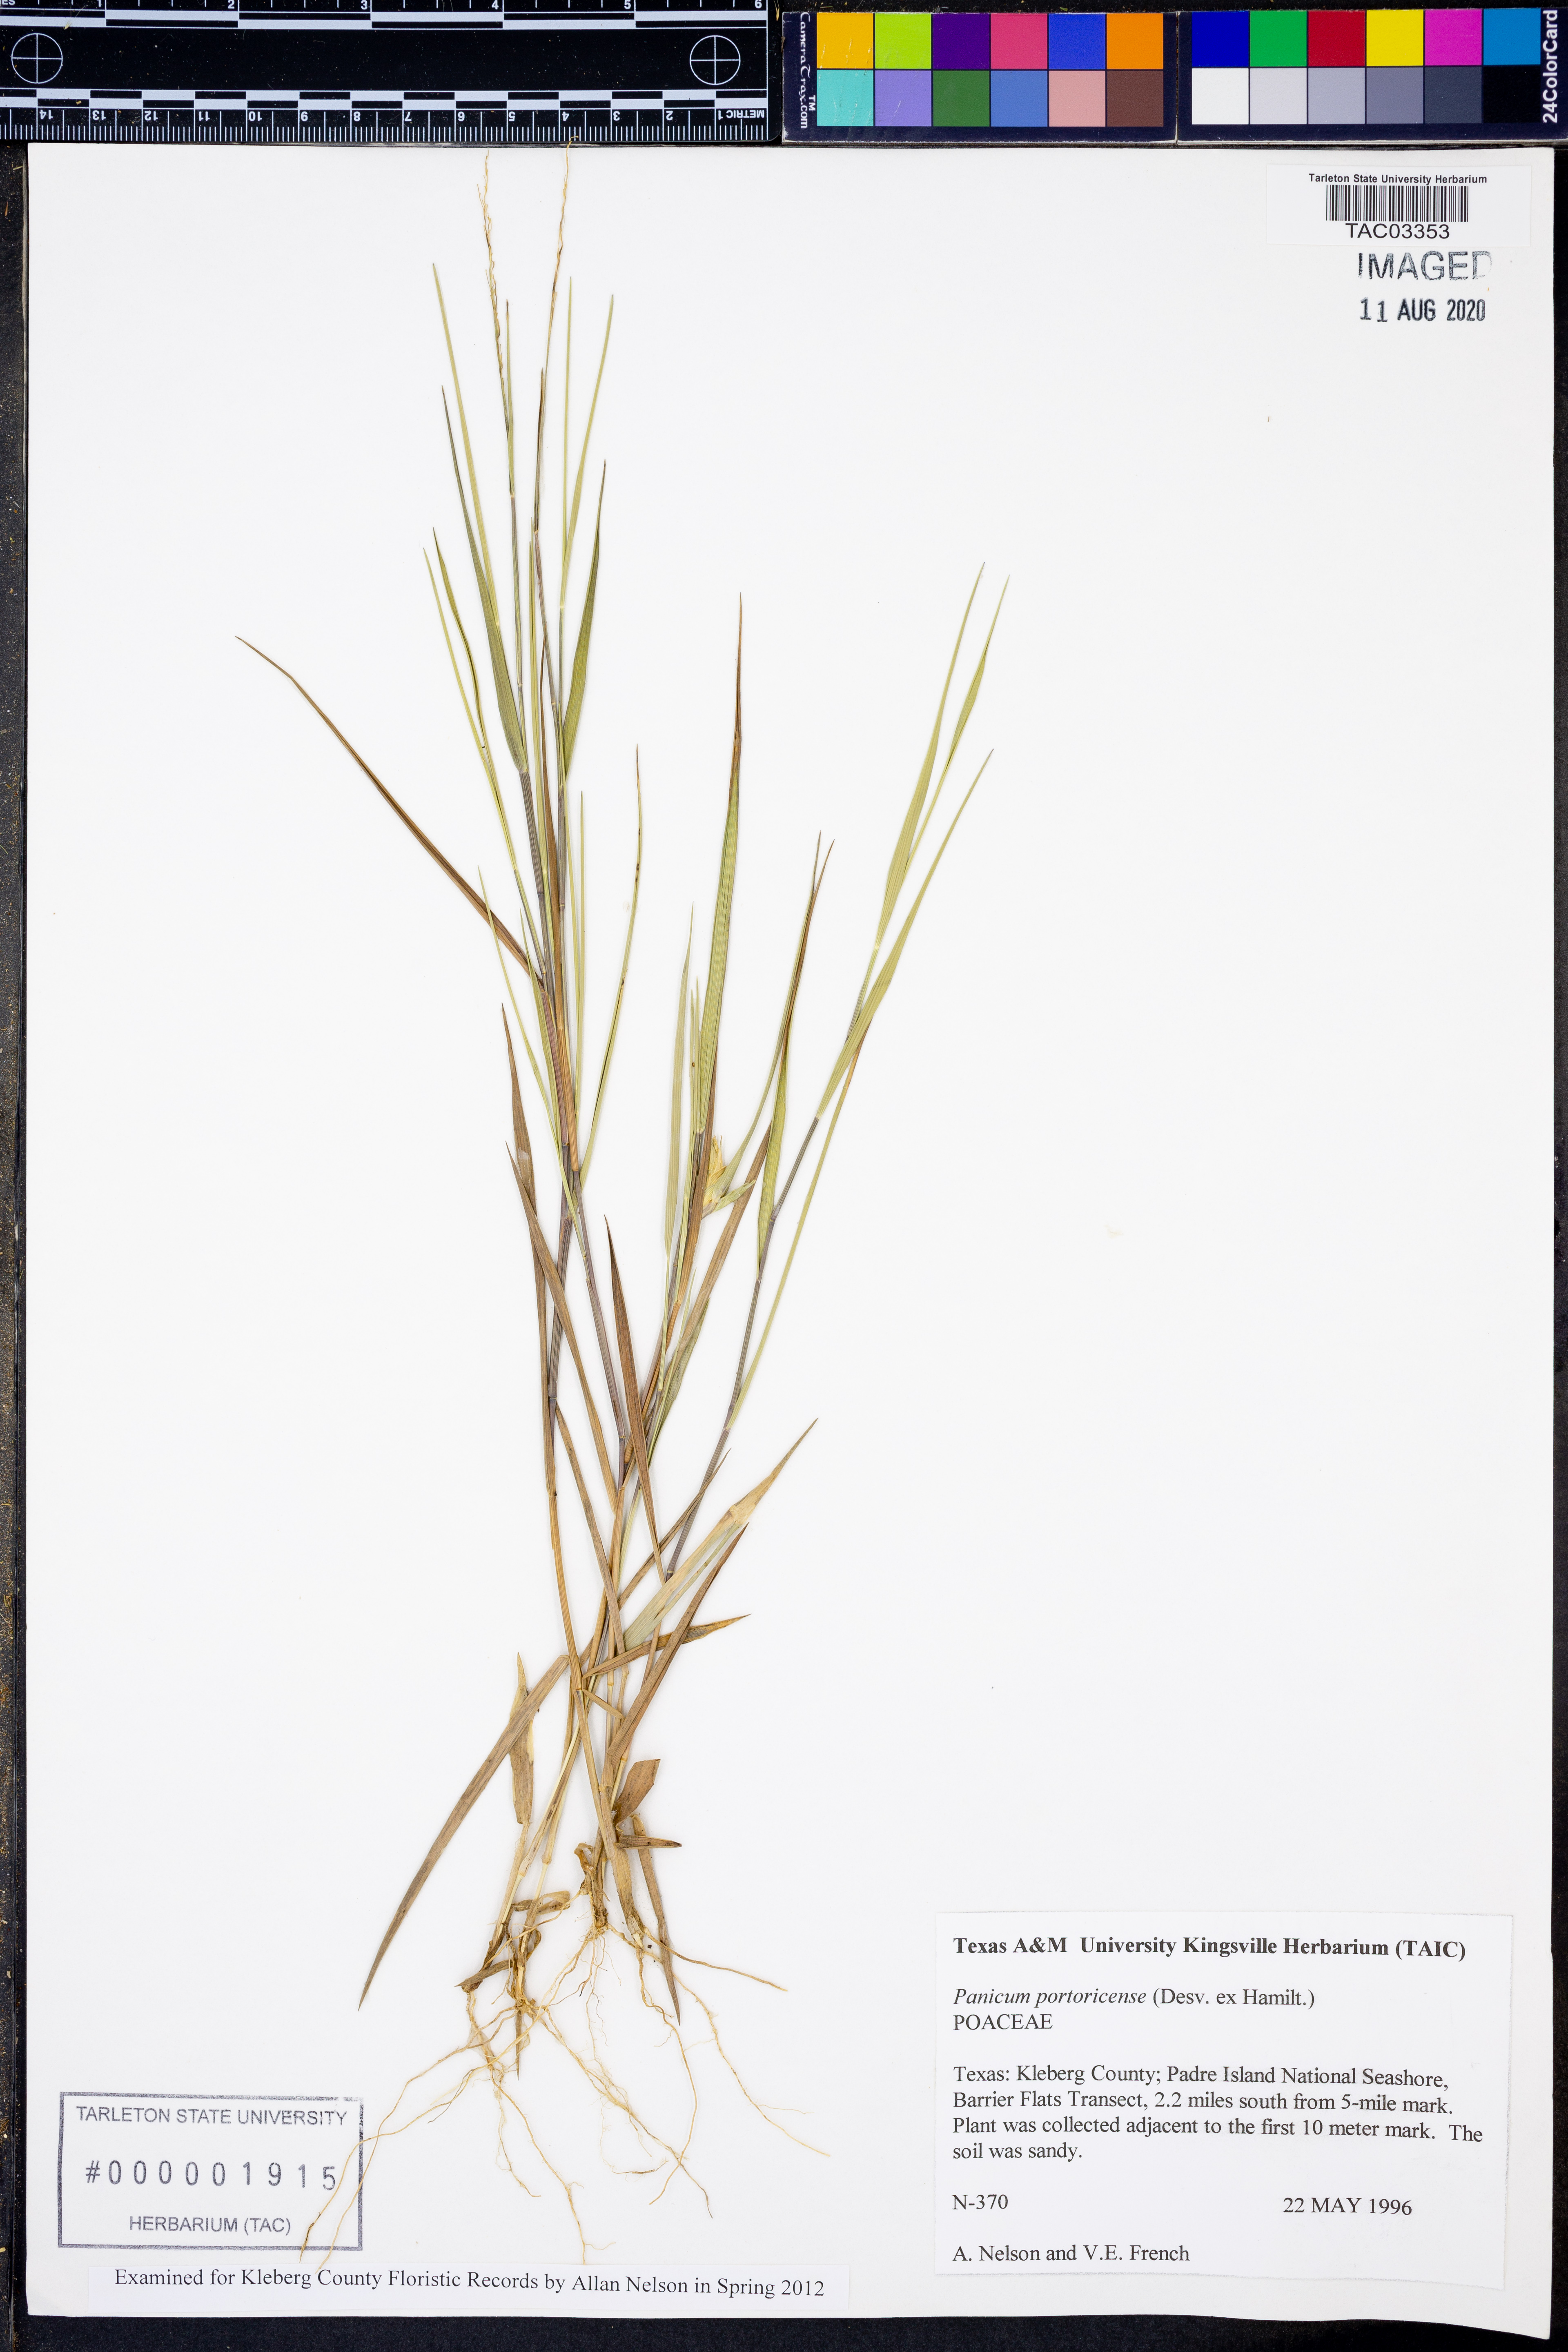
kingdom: Plantae
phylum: Tracheophyta
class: Liliopsida
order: Poales
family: Poaceae
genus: Dichanthelium
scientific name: Dichanthelium portoricense
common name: American panicgrass
